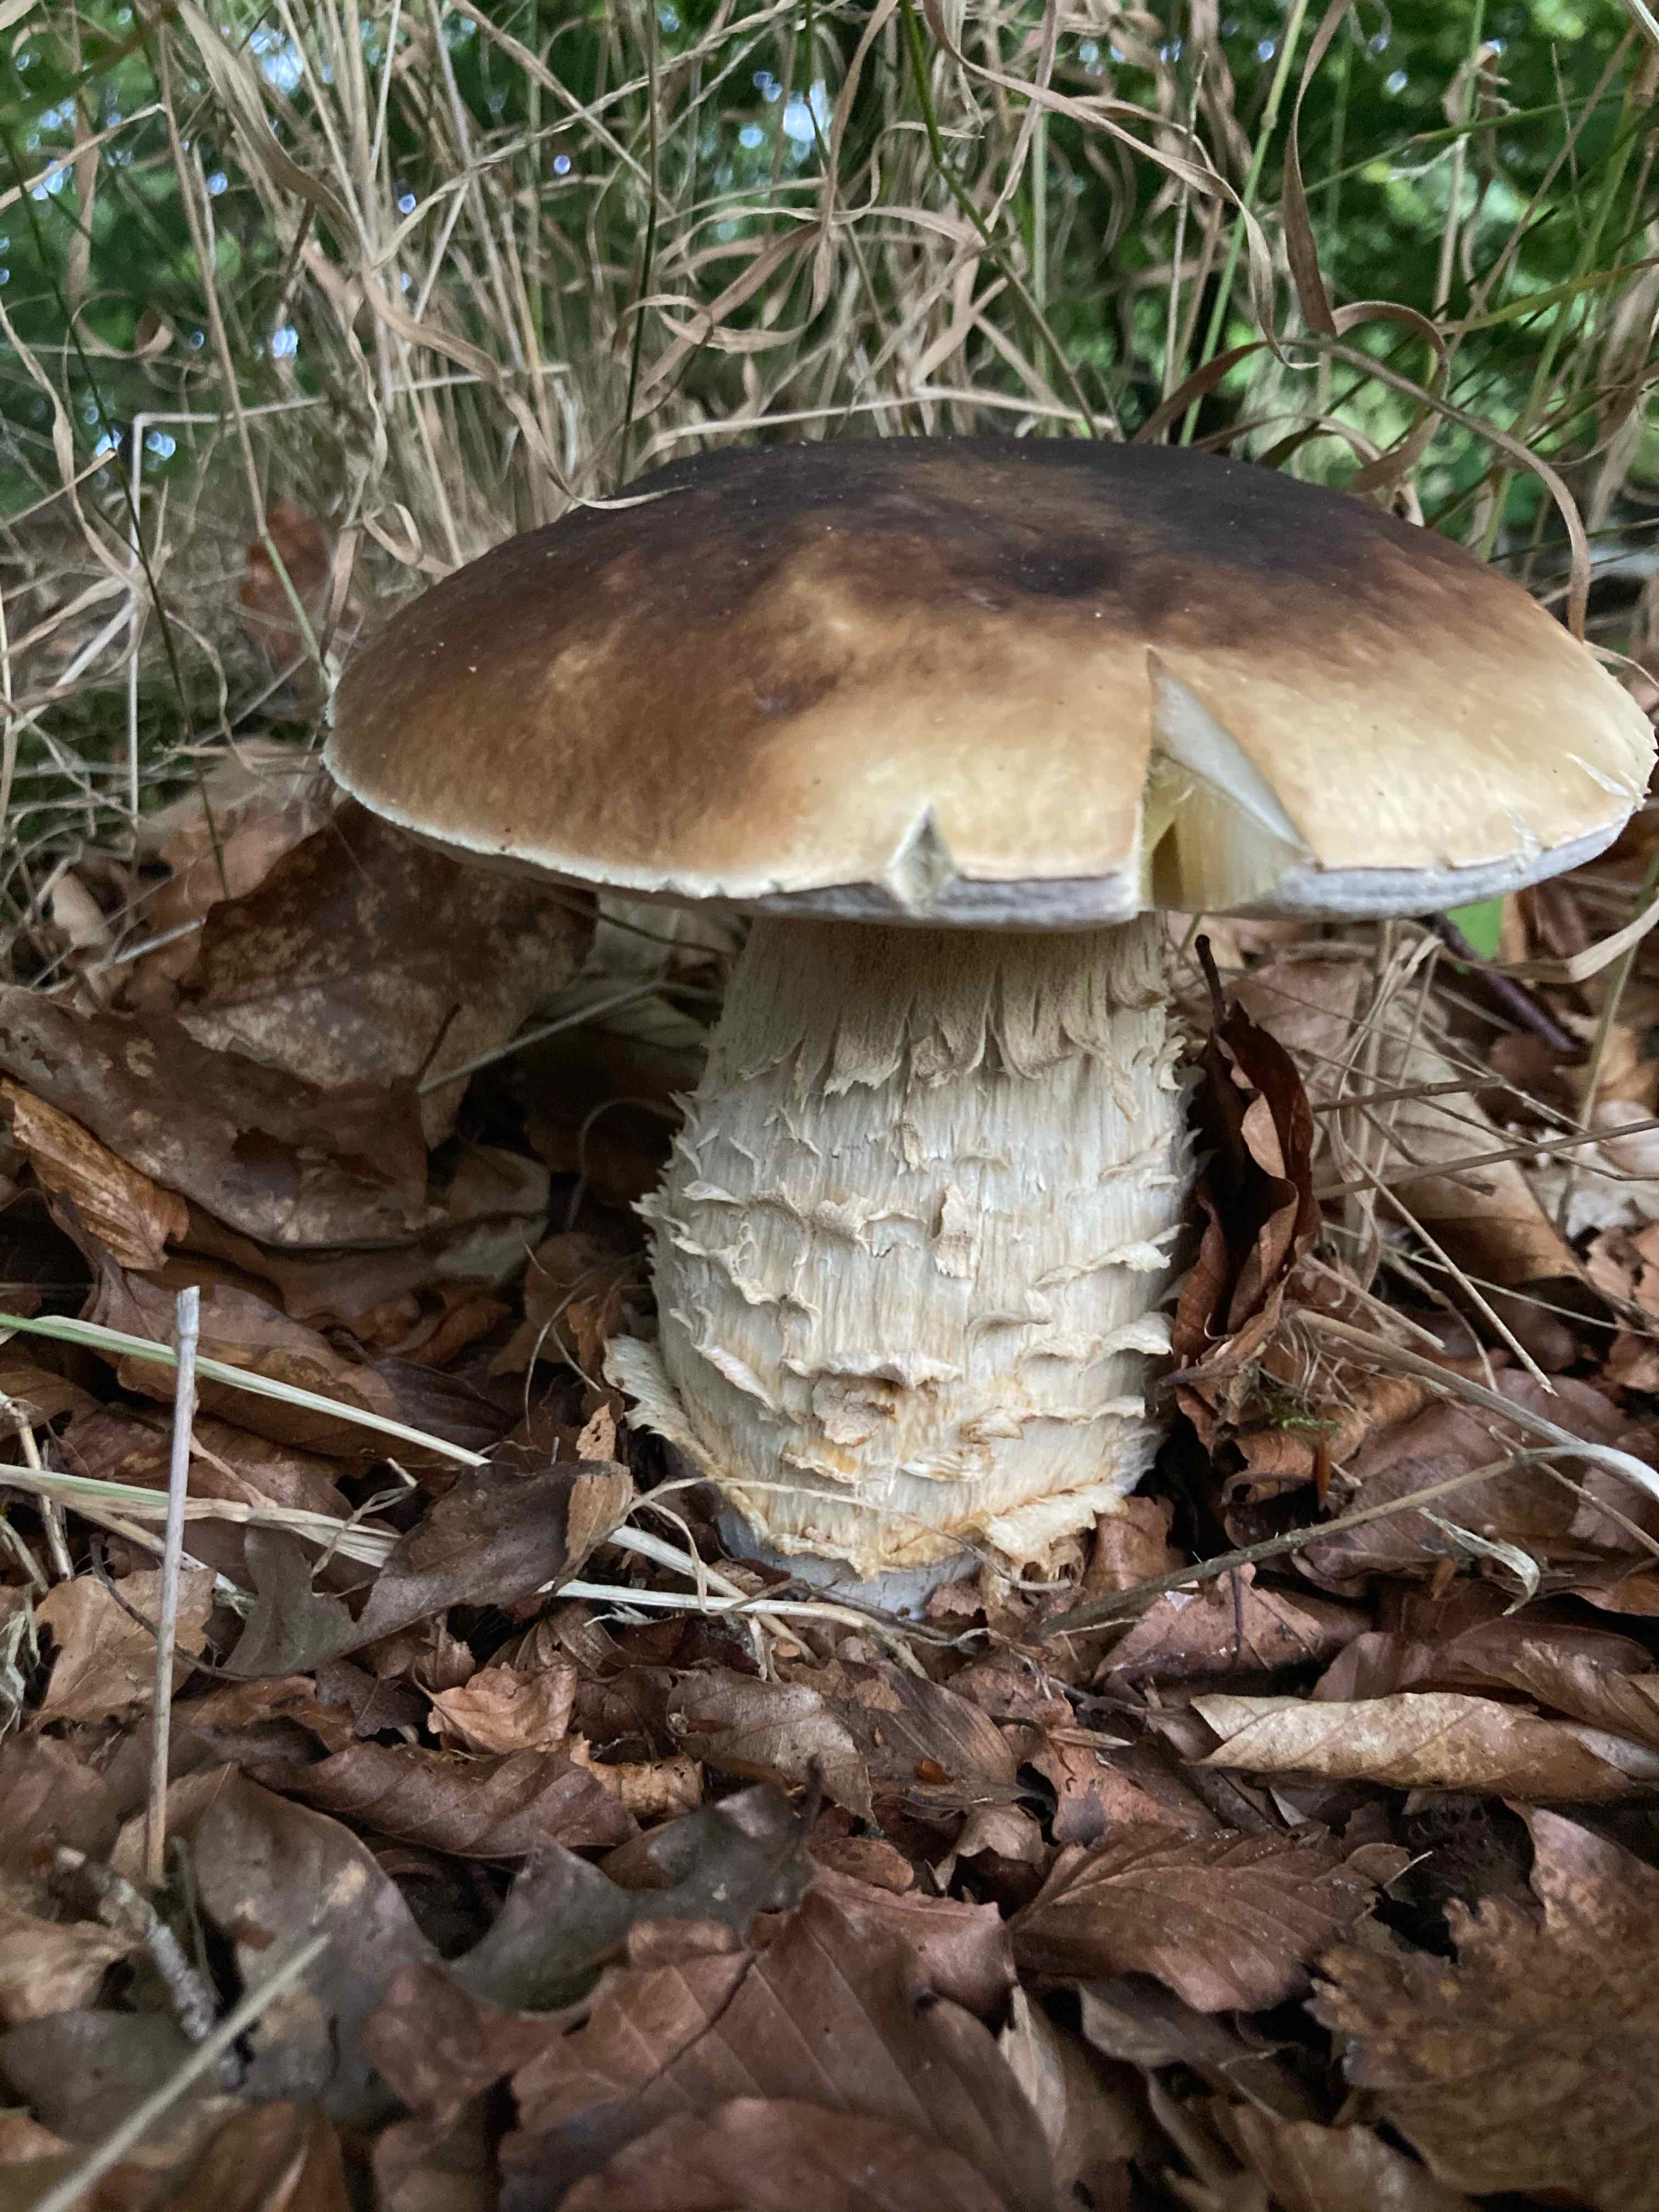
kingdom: Fungi
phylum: Basidiomycota
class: Agaricomycetes
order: Boletales
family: Boletaceae
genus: Boletus
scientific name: Boletus edulis
